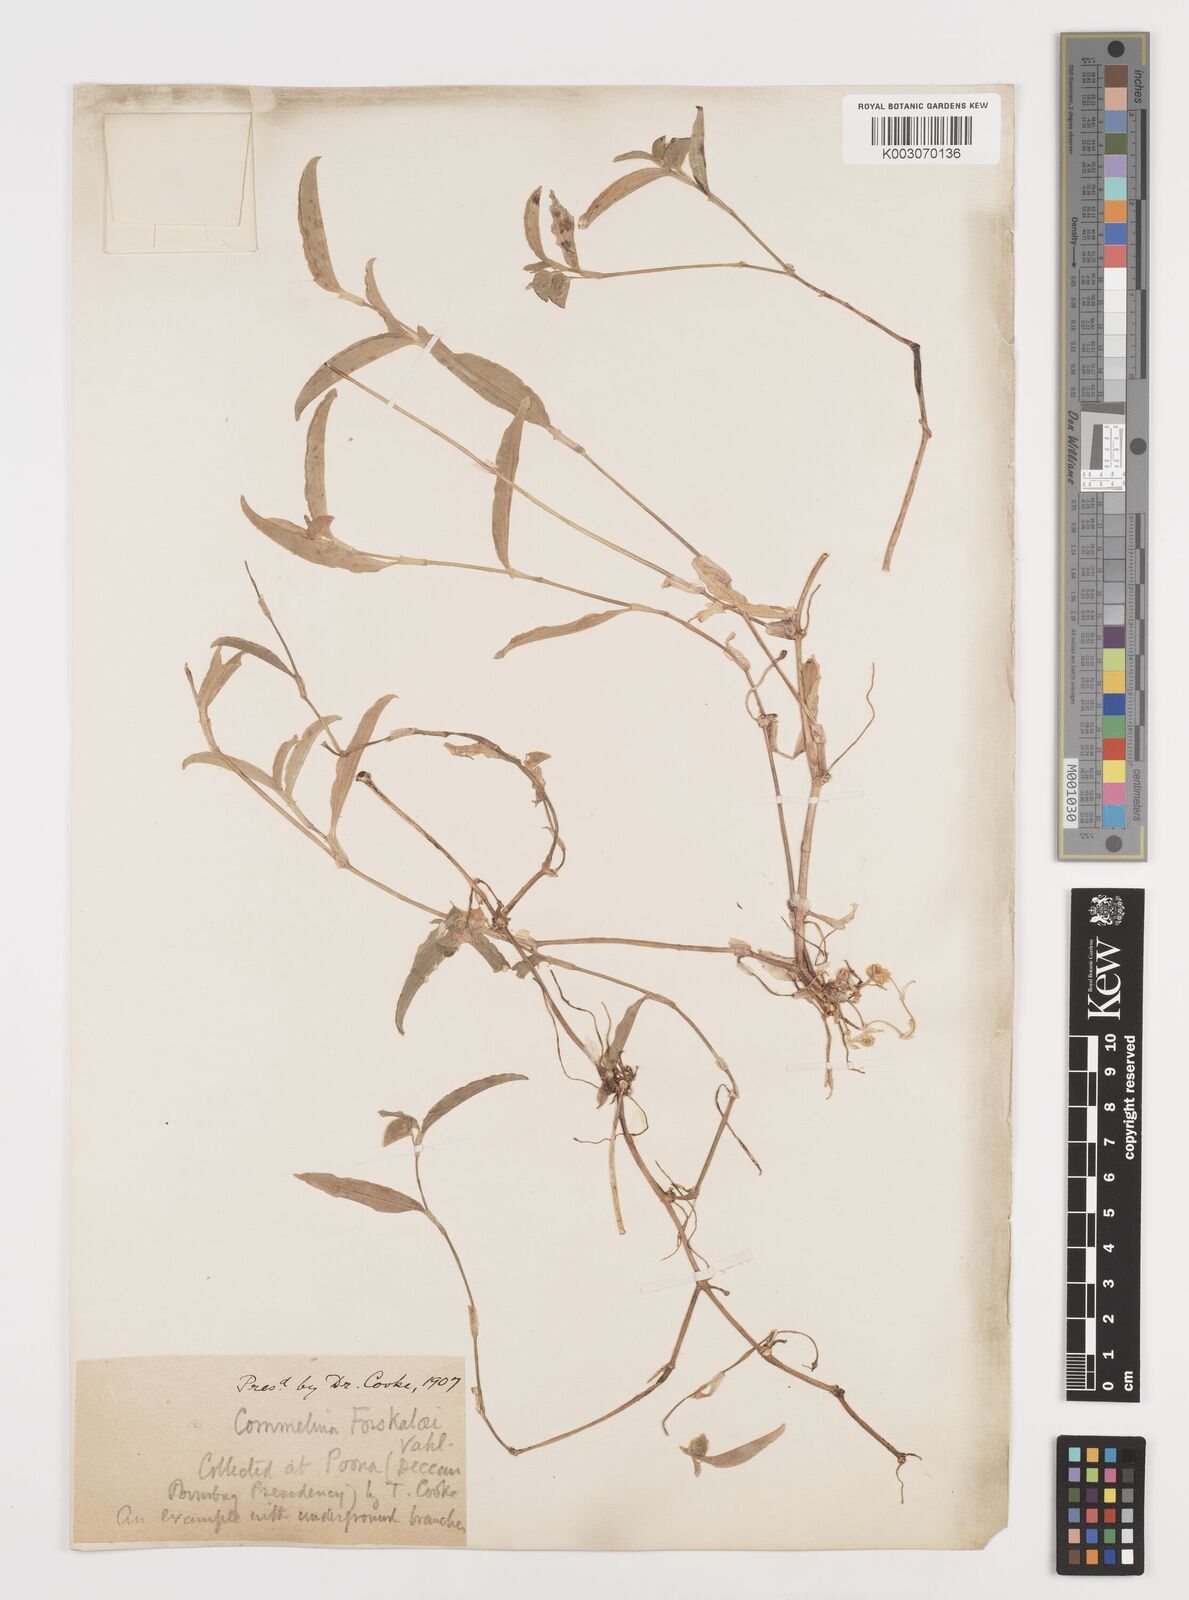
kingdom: Plantae
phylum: Tracheophyta
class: Liliopsida
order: Commelinales
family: Commelinaceae
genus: Commelina
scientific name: Commelina forskaolii
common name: Rat's ear
